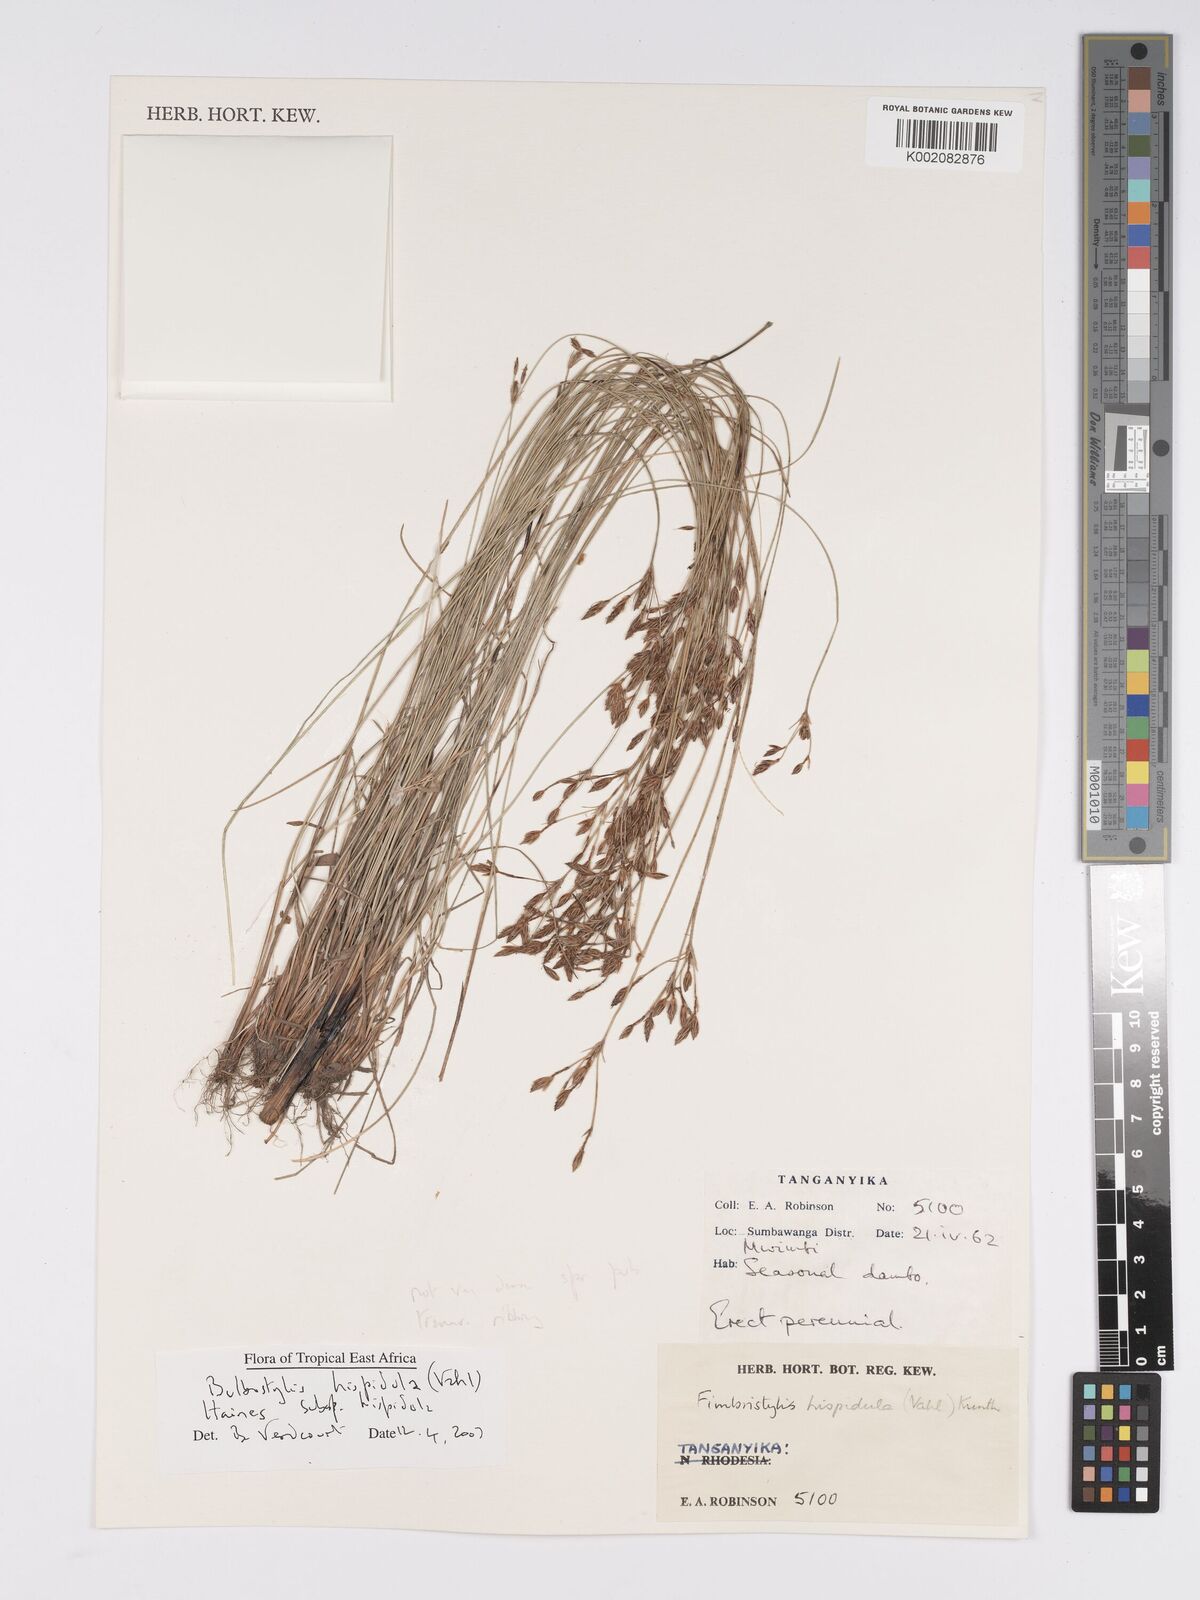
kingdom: Plantae
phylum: Tracheophyta
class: Liliopsida
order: Poales
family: Cyperaceae
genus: Bulbostylis
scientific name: Bulbostylis hispidula
